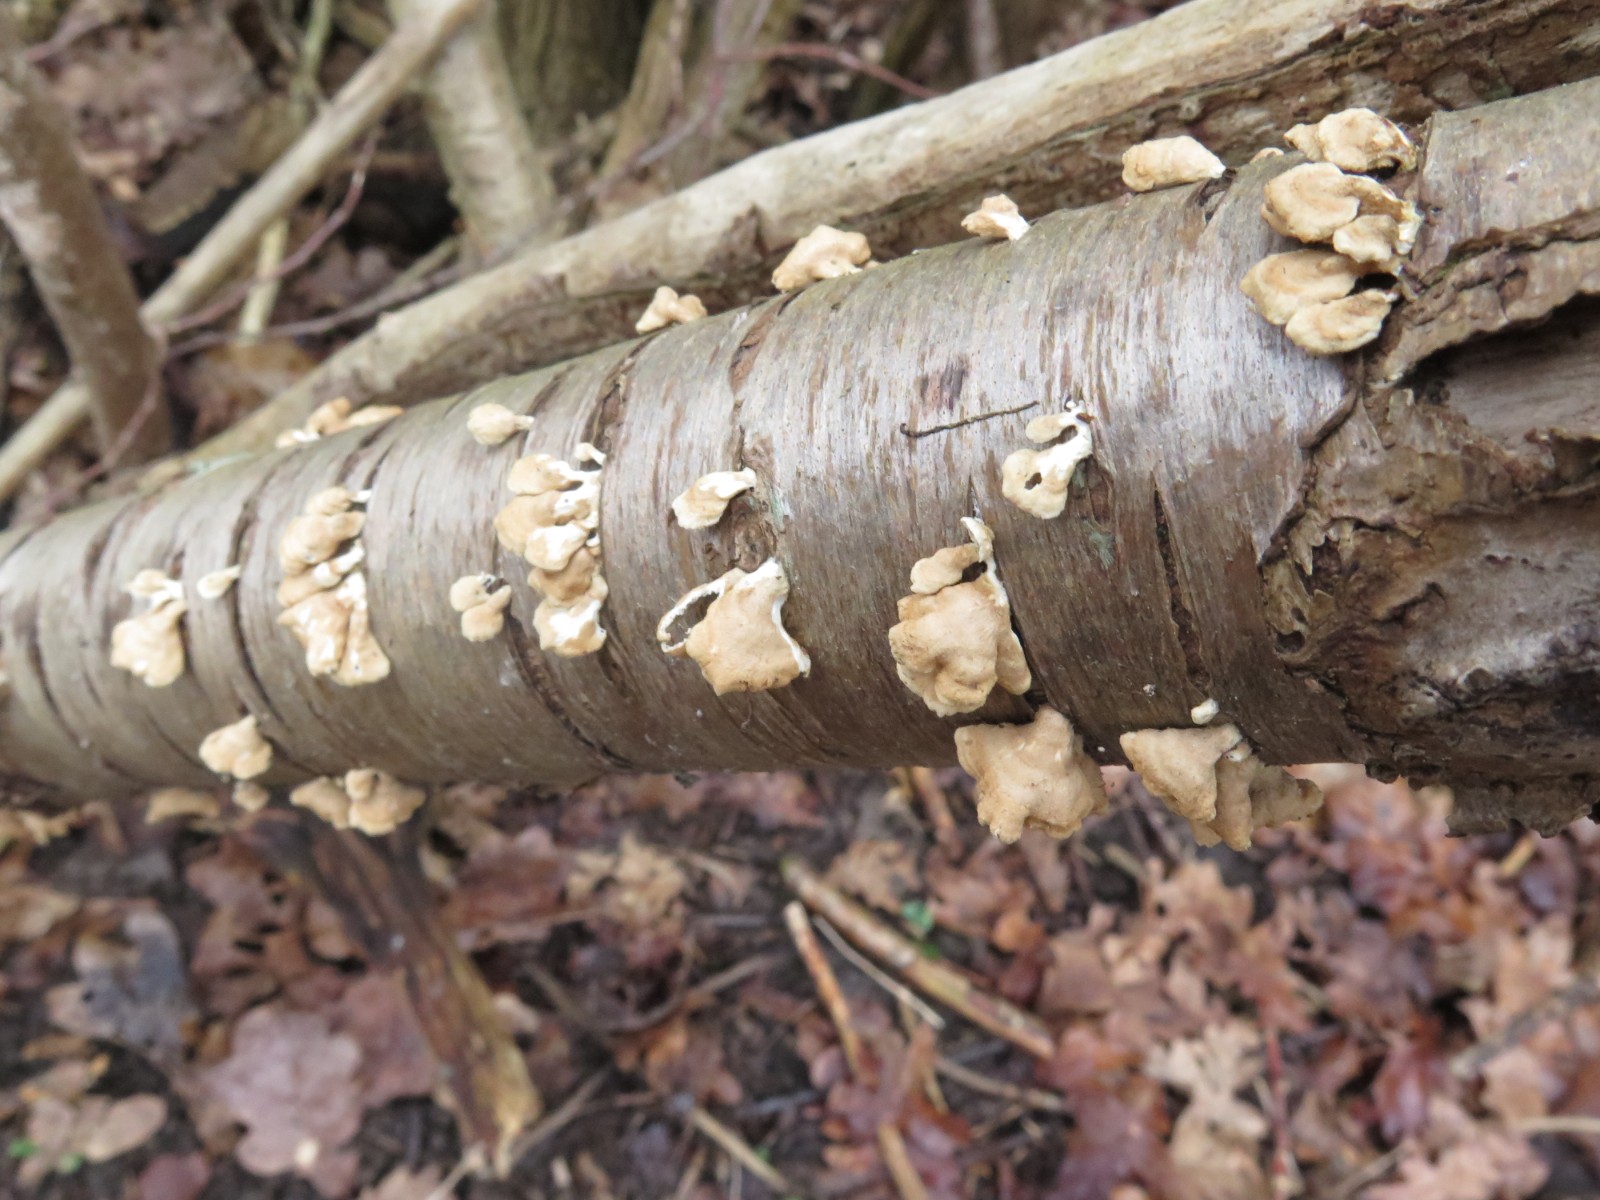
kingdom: Fungi
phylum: Basidiomycota
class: Agaricomycetes
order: Amylocorticiales
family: Amylocorticiaceae
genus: Plicaturopsis
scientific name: Plicaturopsis crispa
